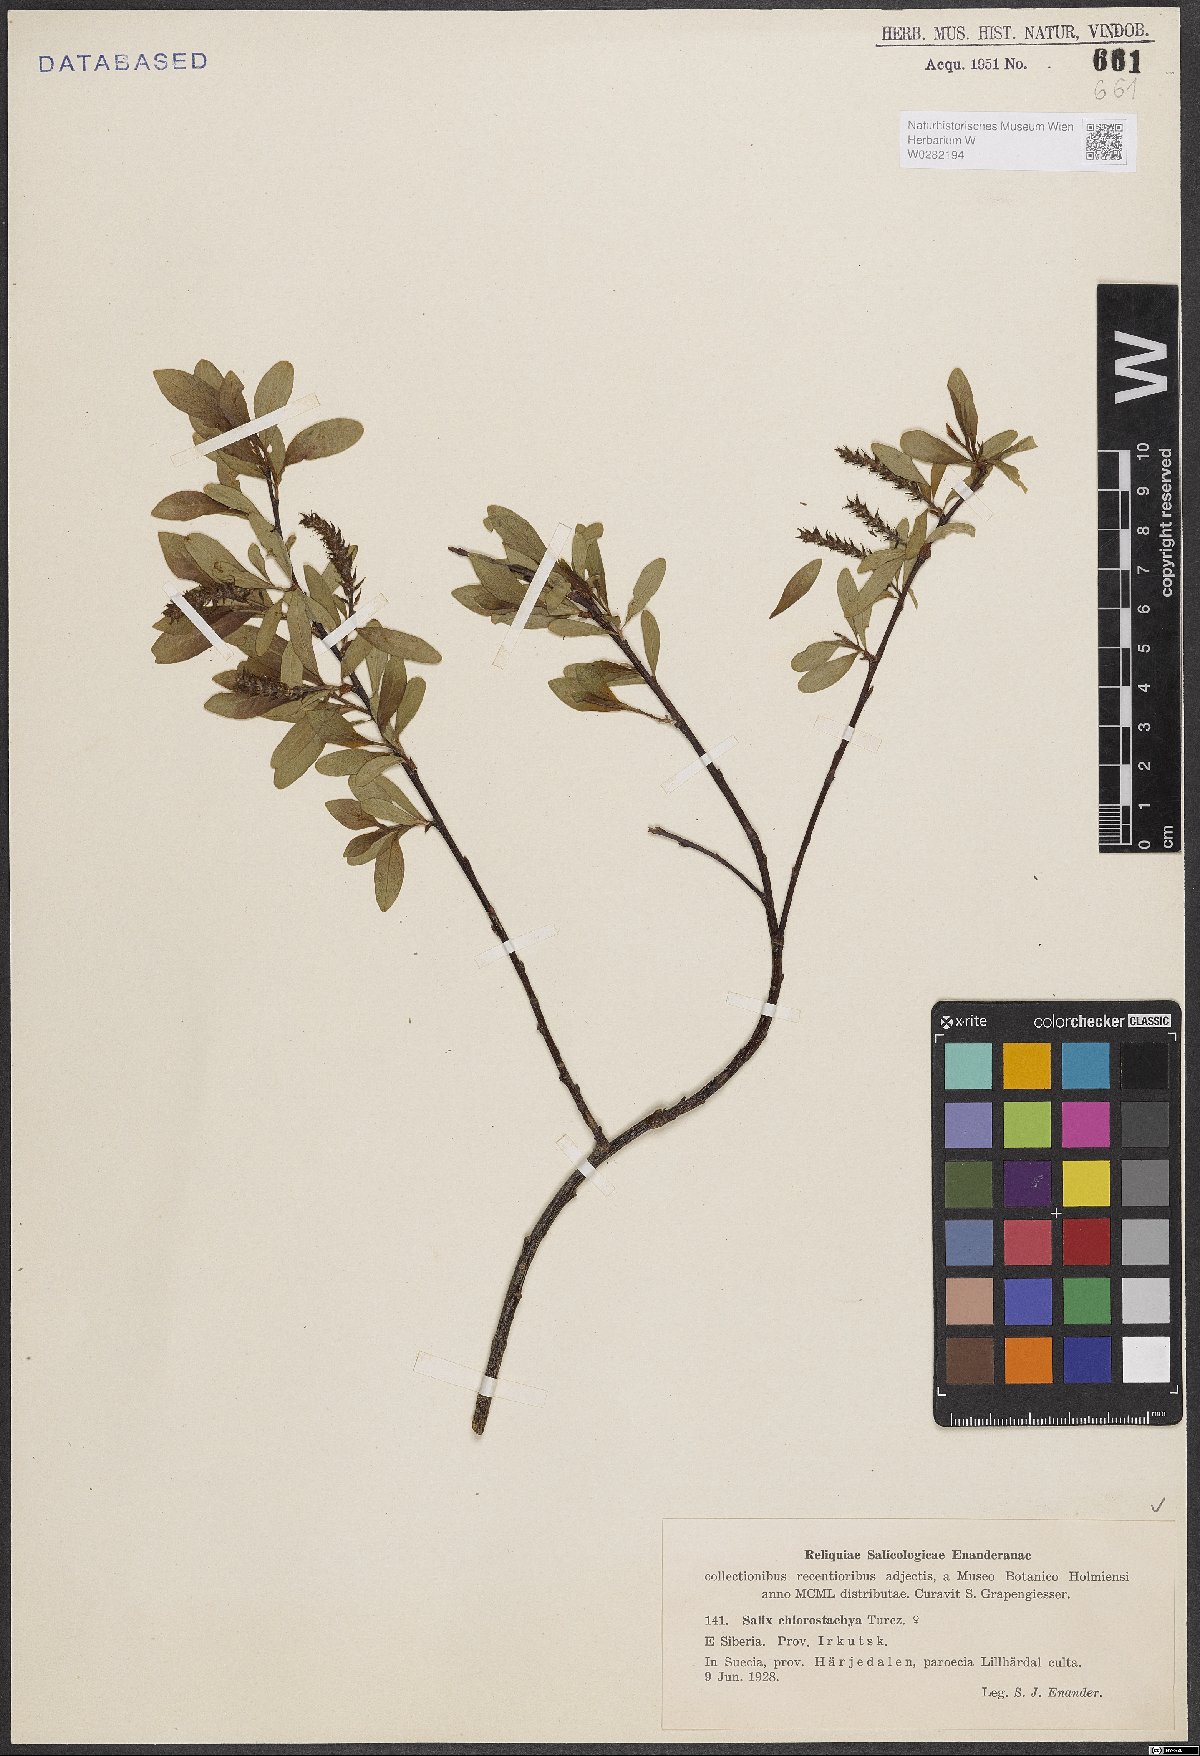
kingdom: Plantae
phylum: Tracheophyta
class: Magnoliopsida
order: Malpighiales
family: Salicaceae
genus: Salix
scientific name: Salix rhamnifolia
